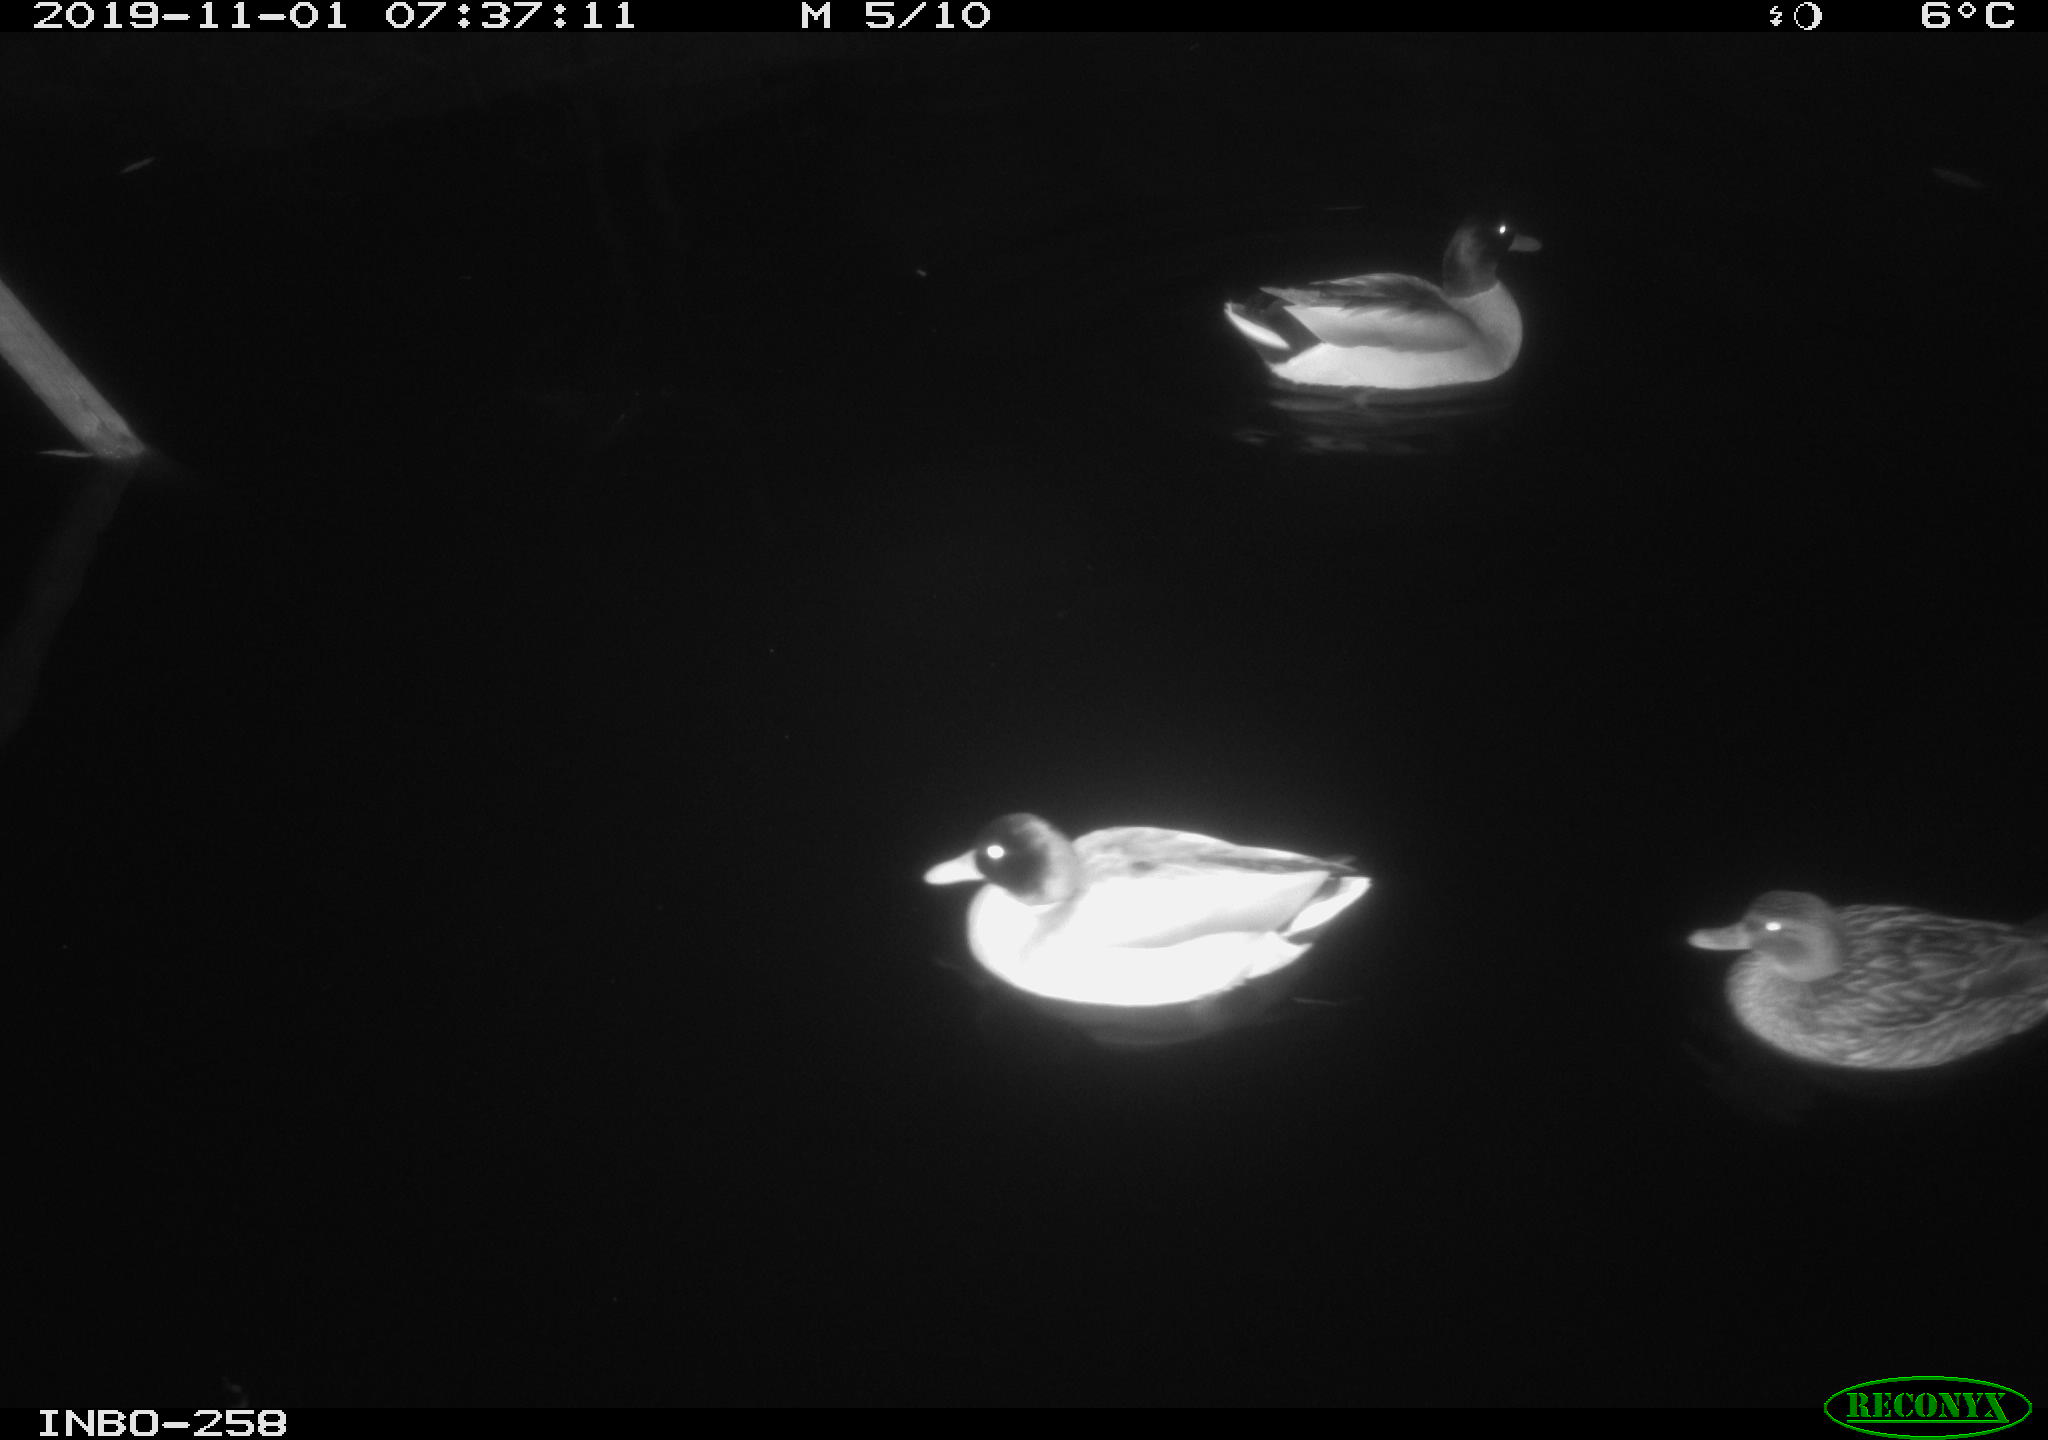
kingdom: Animalia
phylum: Chordata
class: Aves
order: Anseriformes
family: Anatidae
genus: Anas
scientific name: Anas platyrhynchos
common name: Mallard
